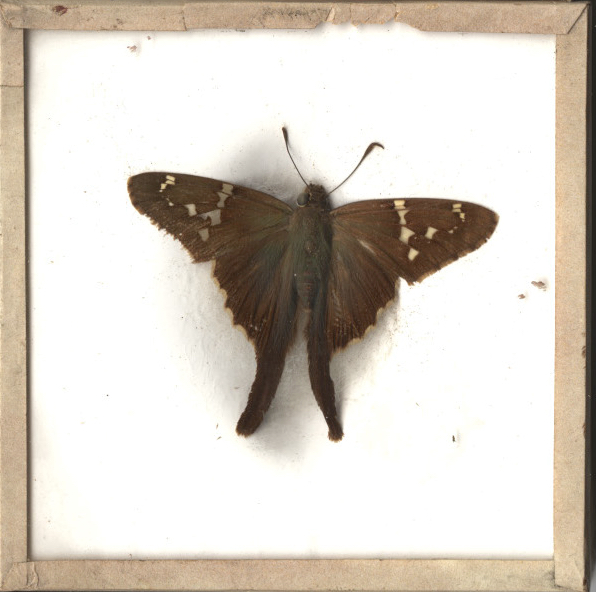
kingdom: Animalia
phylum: Arthropoda
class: Insecta
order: Lepidoptera
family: Hesperiidae
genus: Urbanus
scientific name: Urbanus proteus
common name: Long-tailed Skipper
